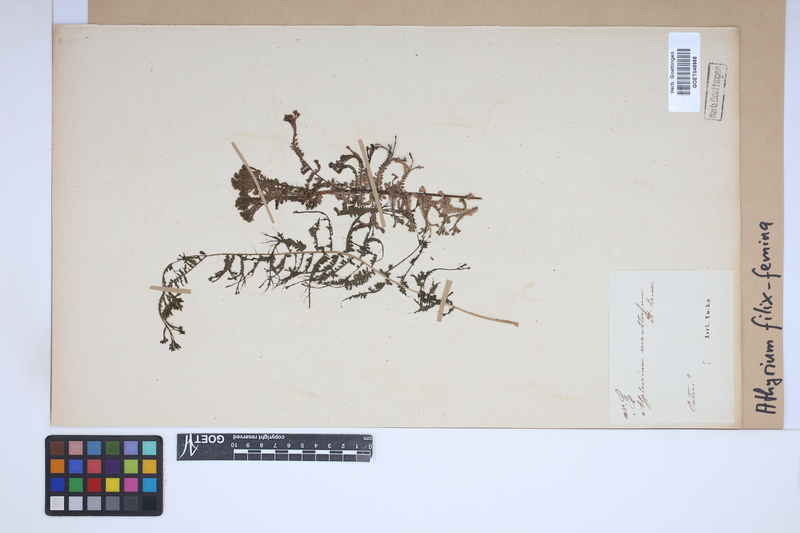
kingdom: Plantae
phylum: Tracheophyta
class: Polypodiopsida
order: Polypodiales
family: Athyriaceae
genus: Athyrium
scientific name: Athyrium filix-femina
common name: Lady fern
